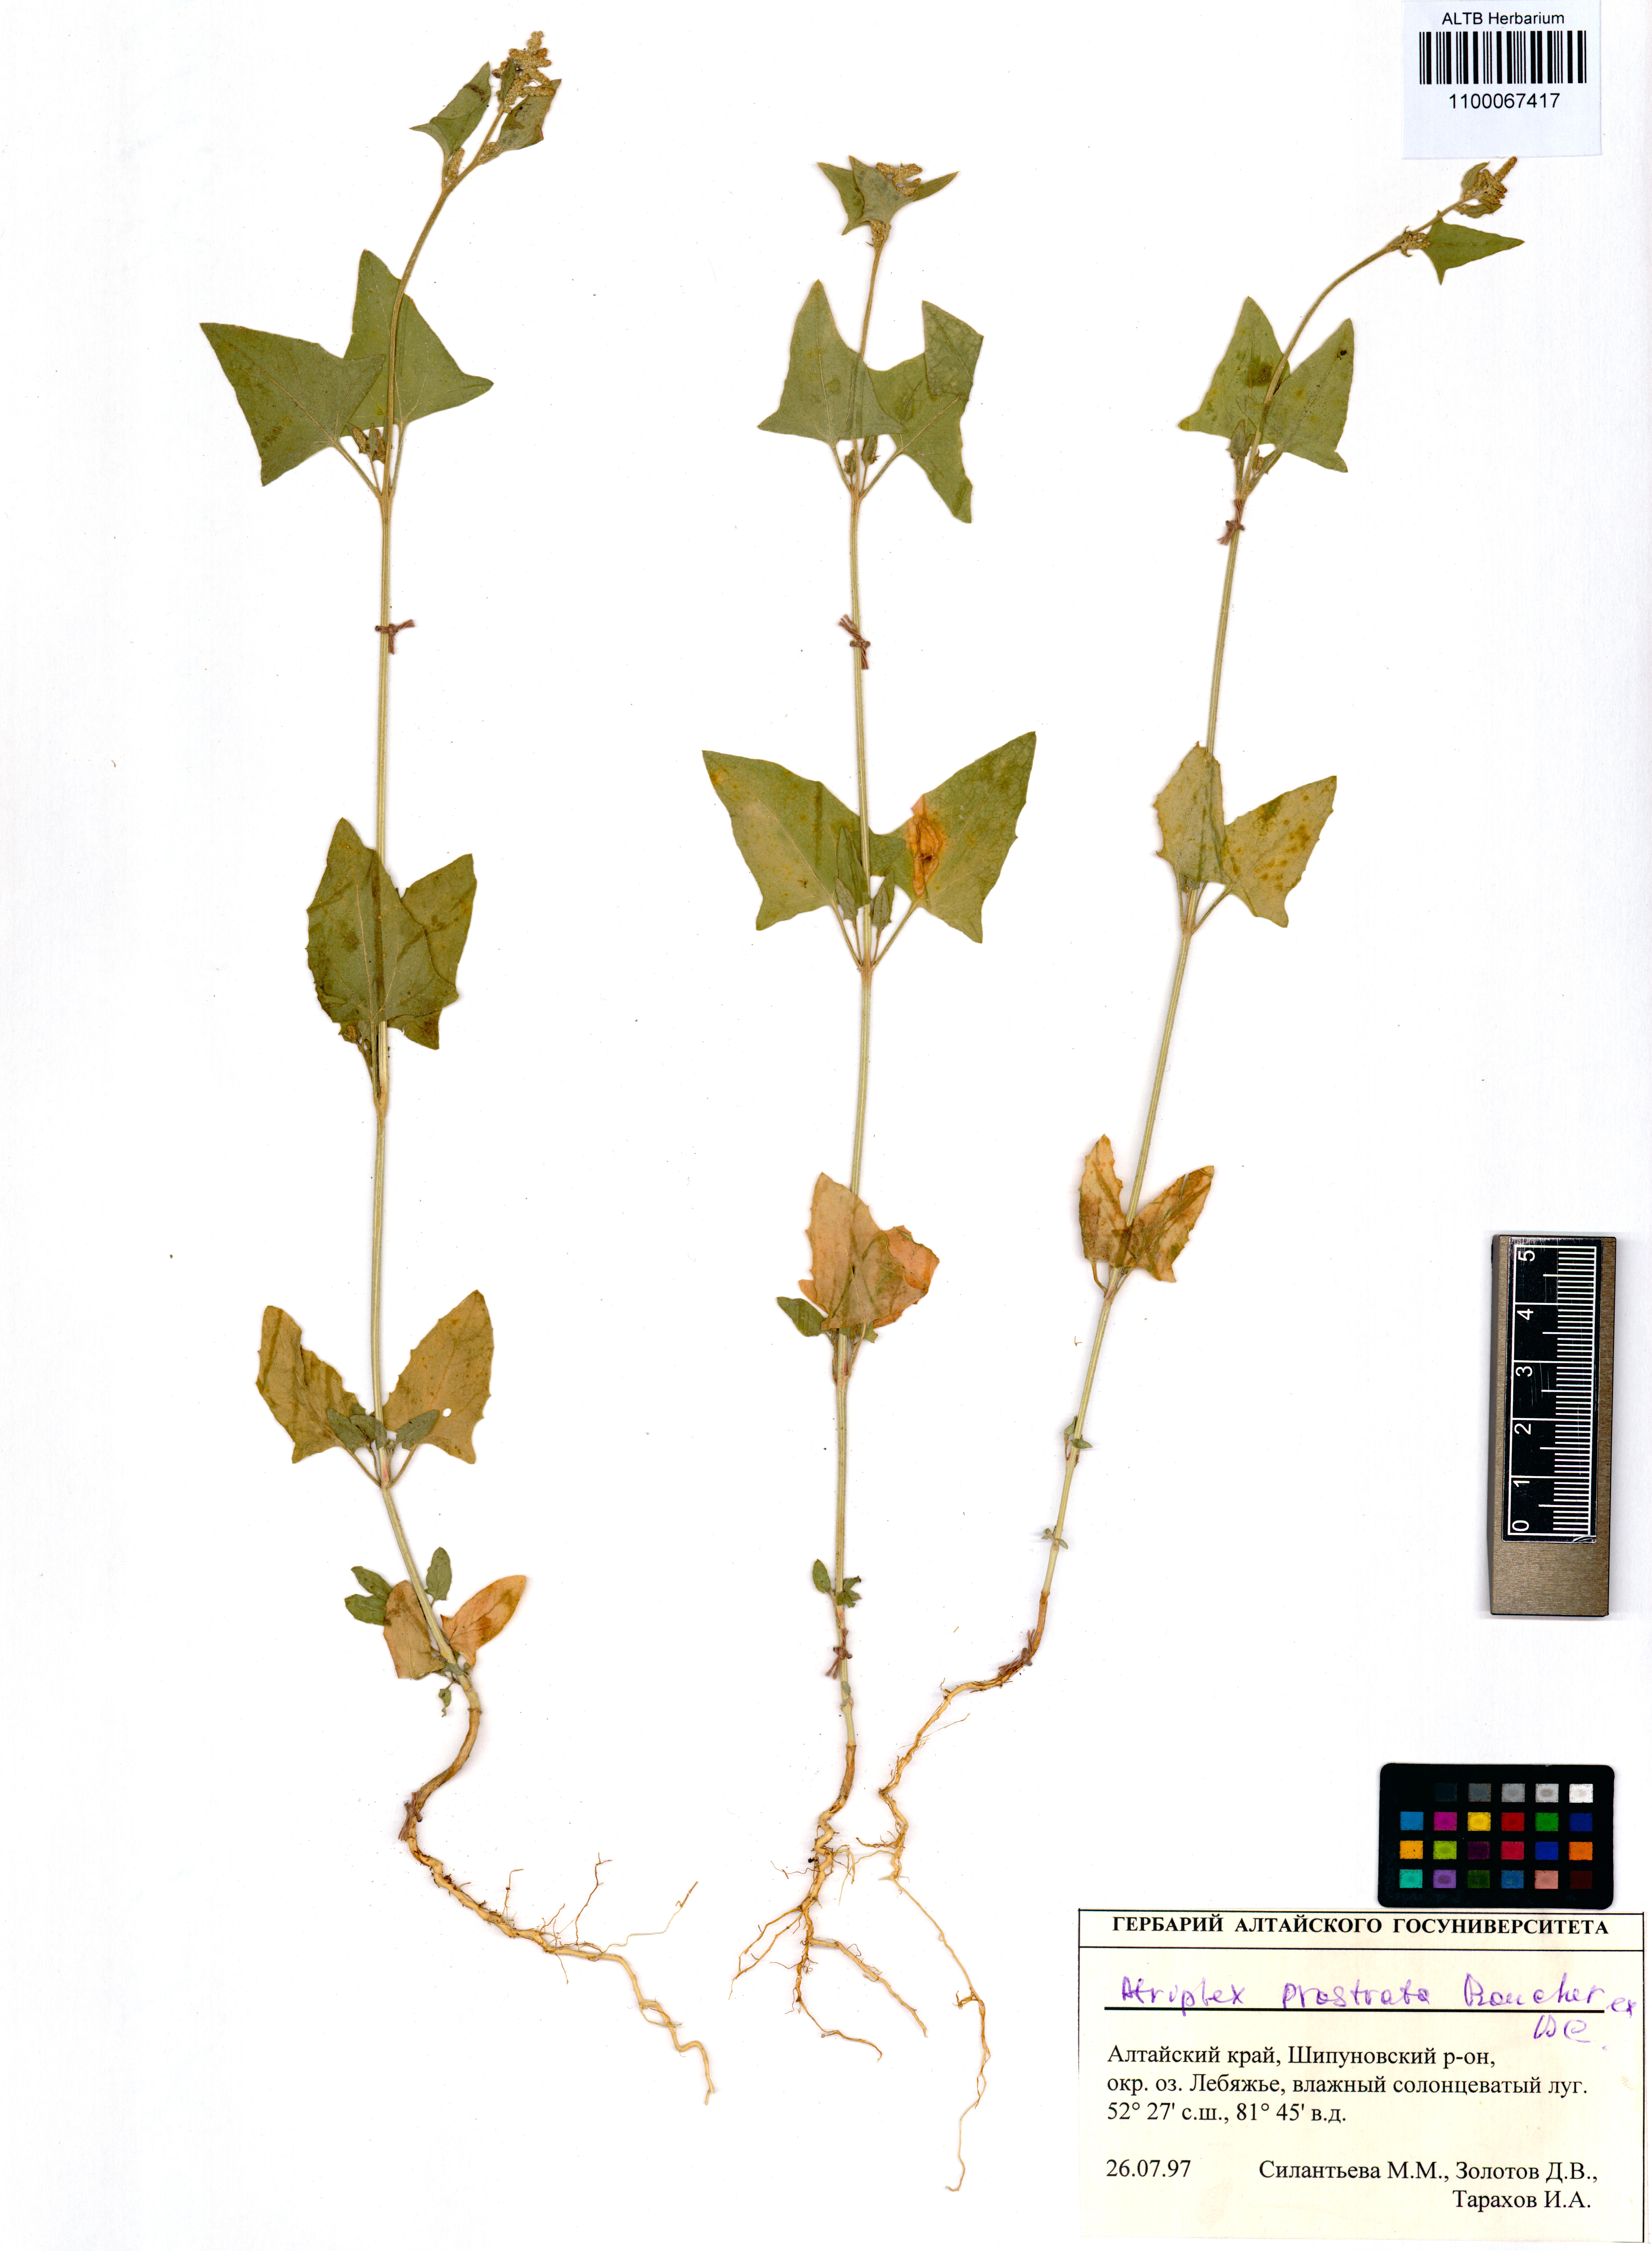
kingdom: Plantae
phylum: Tracheophyta
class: Magnoliopsida
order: Caryophyllales
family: Amaranthaceae
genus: Atriplex
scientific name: Atriplex prostrata
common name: Spear-leaved orache
